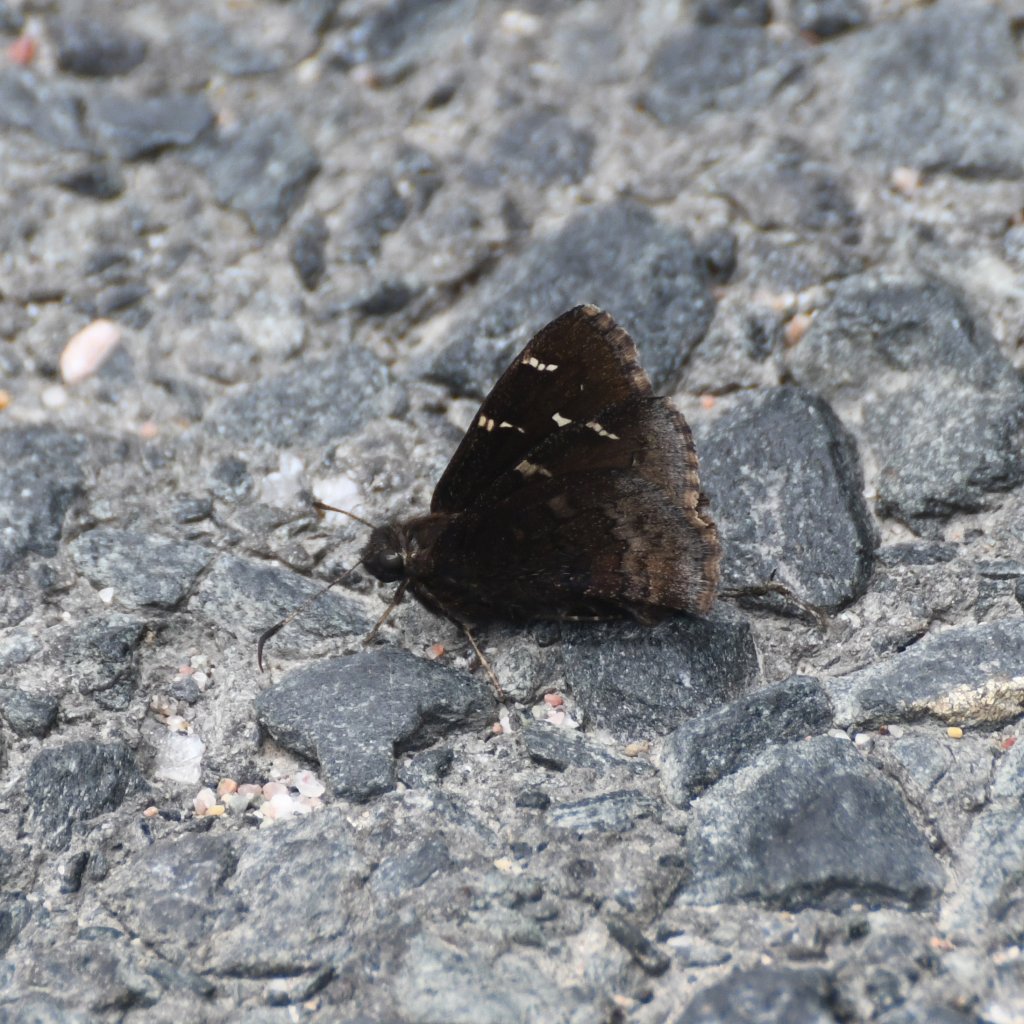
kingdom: Animalia
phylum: Arthropoda
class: Insecta
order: Lepidoptera
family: Hesperiidae
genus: Autochton
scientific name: Autochton
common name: Northern Cloudywing
